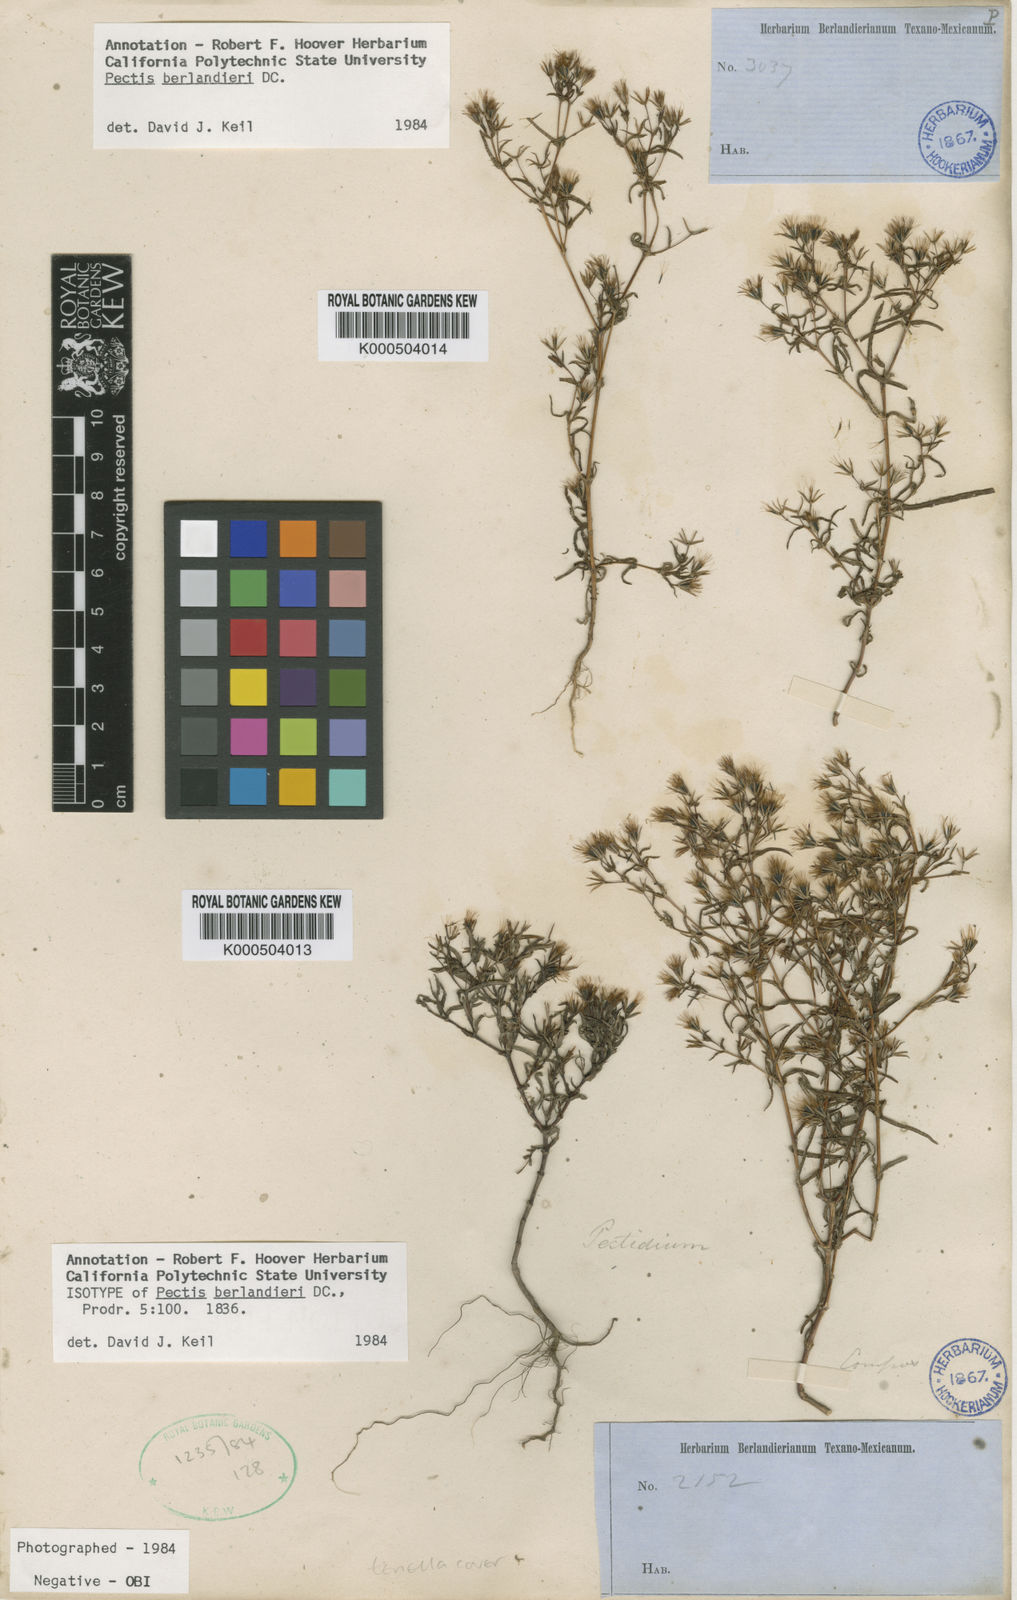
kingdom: Plantae
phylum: Tracheophyta
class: Magnoliopsida
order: Asterales
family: Asteraceae
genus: Pectis
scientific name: Pectis berlandieri
